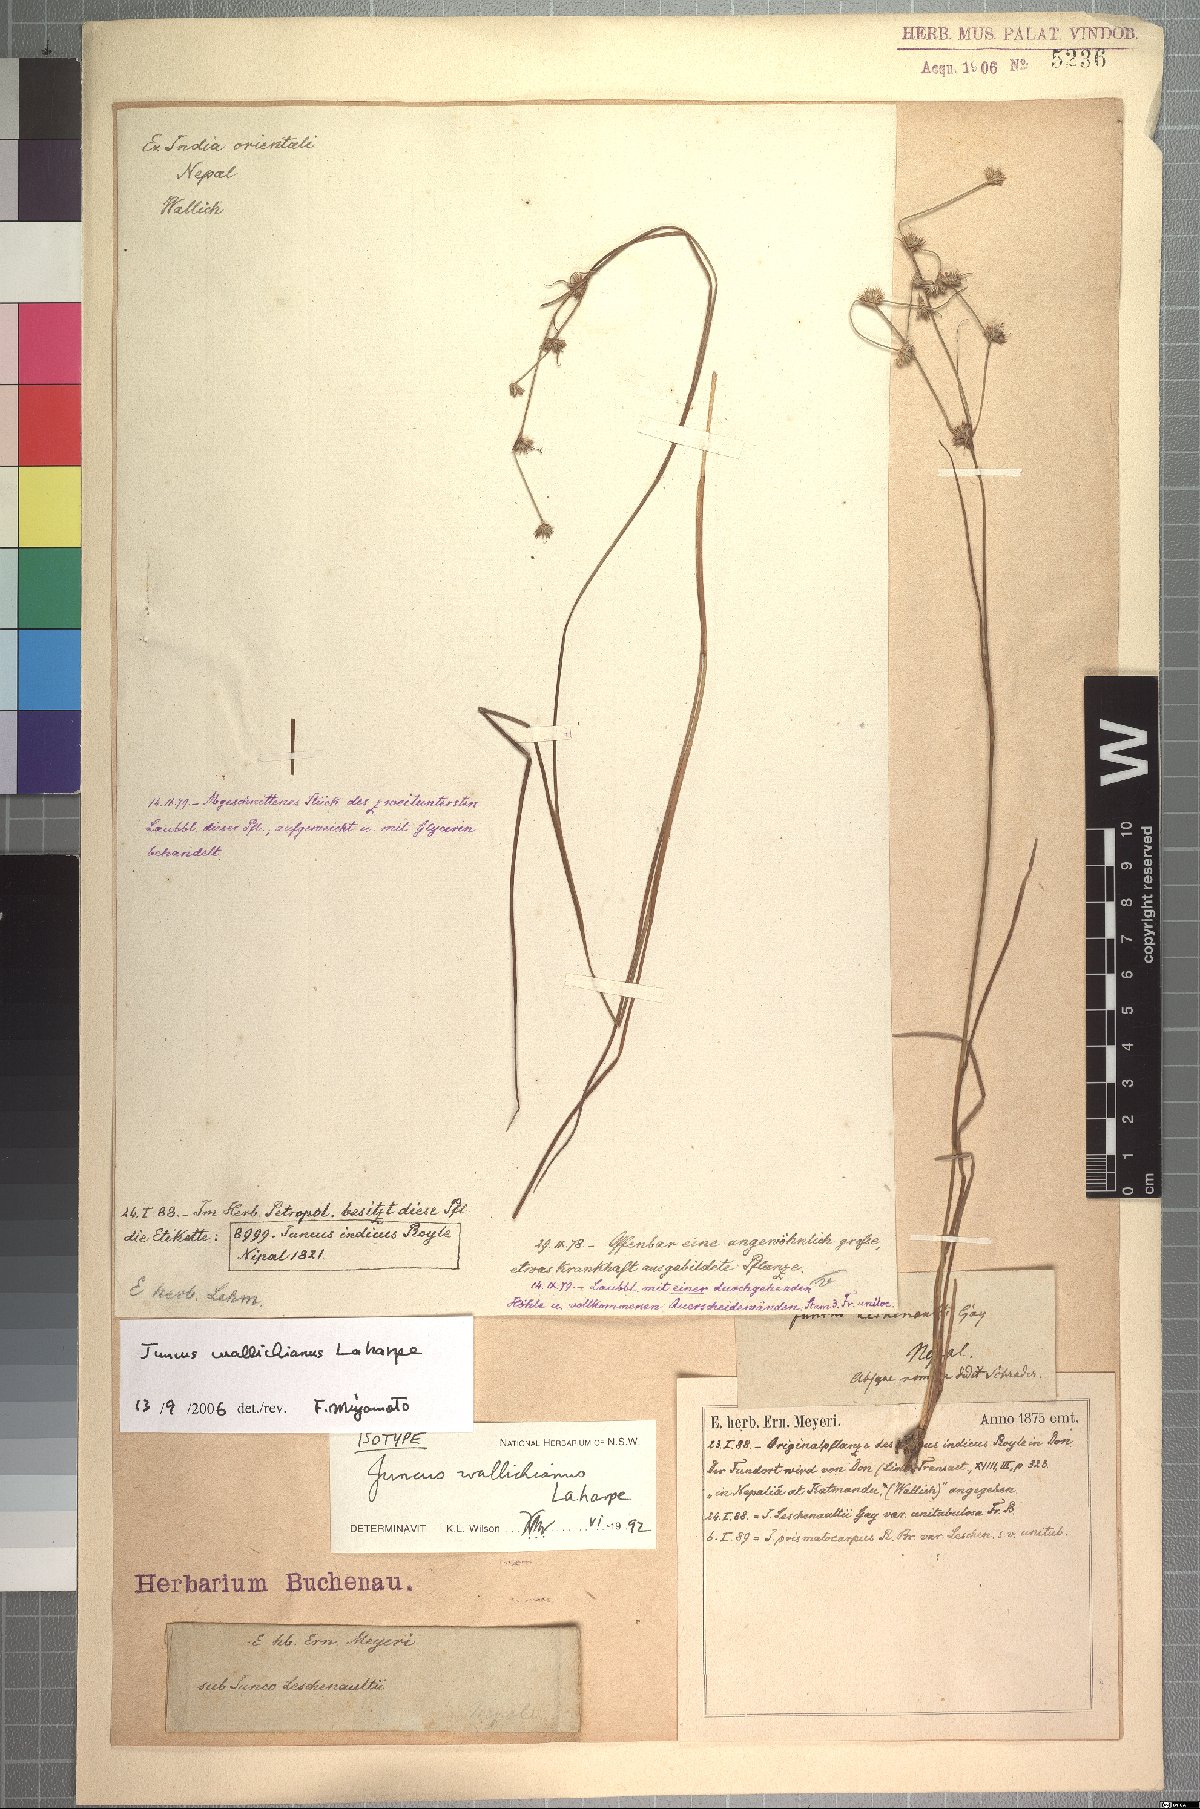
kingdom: Plantae
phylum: Tracheophyta
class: Liliopsida
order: Poales
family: Juncaceae
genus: Juncus
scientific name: Juncus wallichianus
